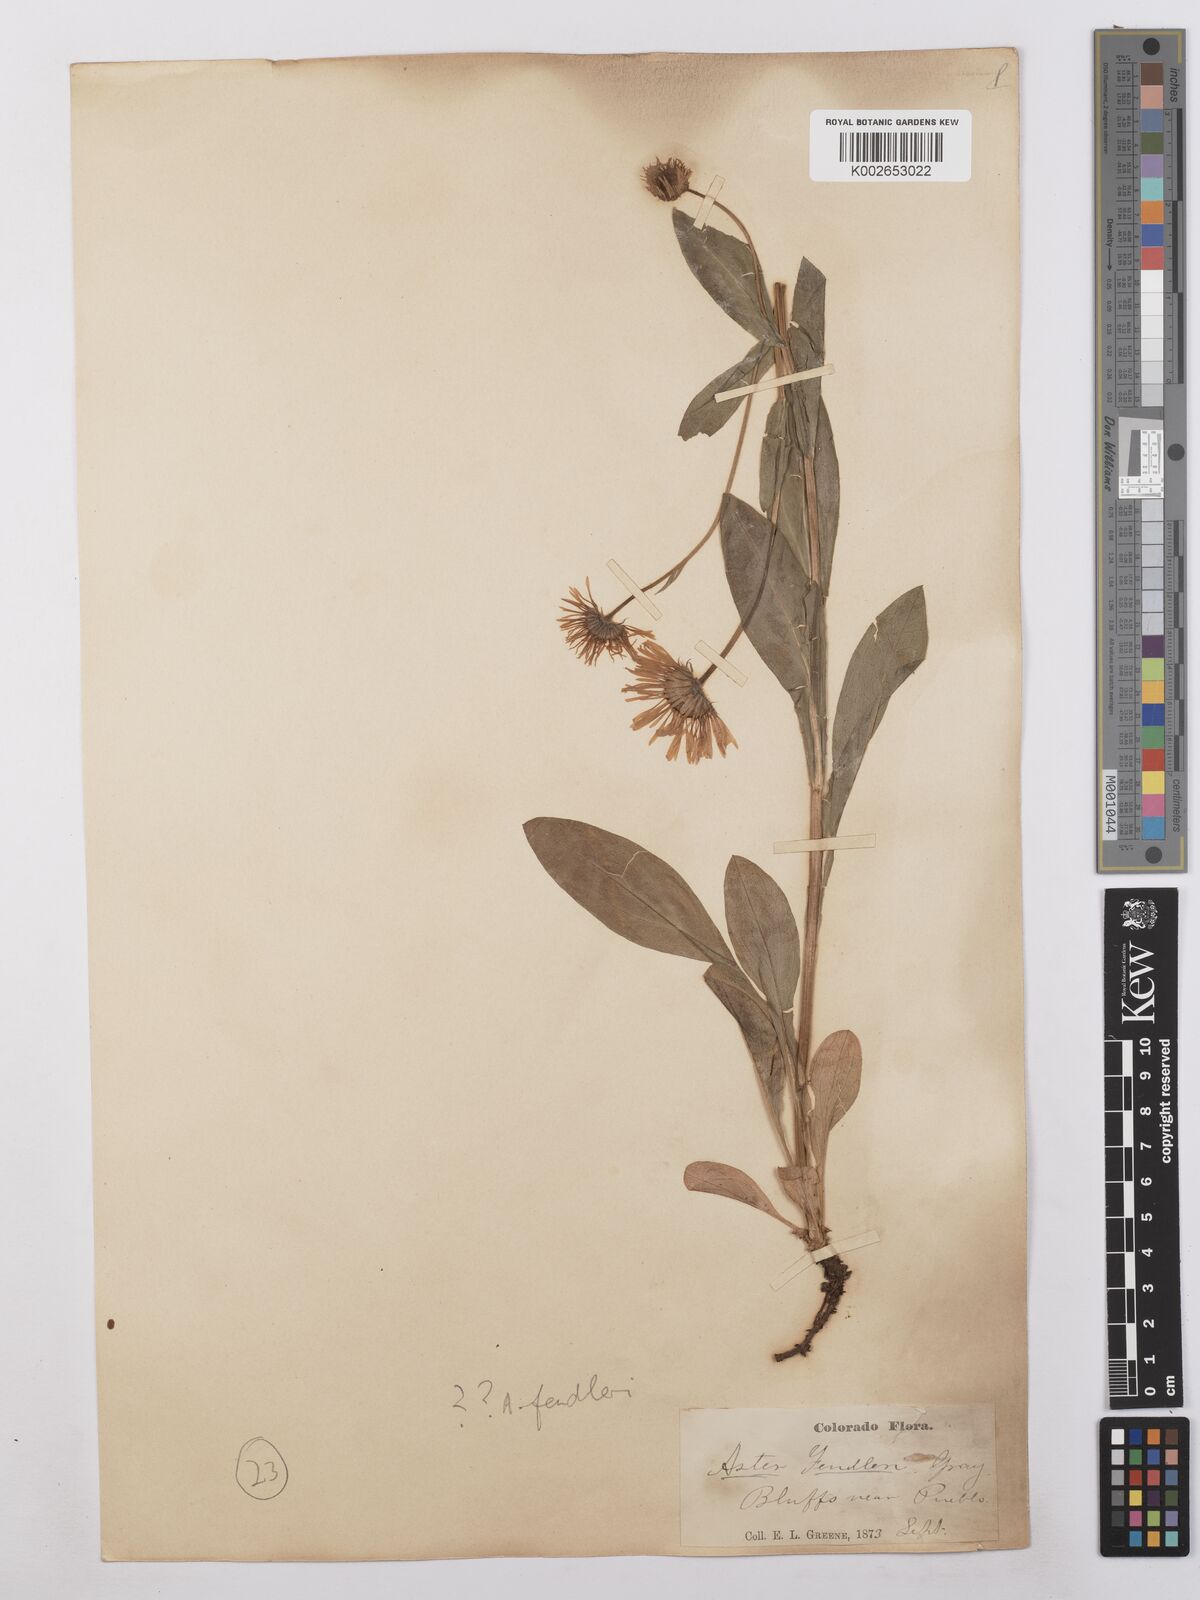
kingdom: Plantae
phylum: Tracheophyta
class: Magnoliopsida
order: Asterales
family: Asteraceae
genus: Symphyotrichum
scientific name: Symphyotrichum fendleri
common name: Fendler's aster
